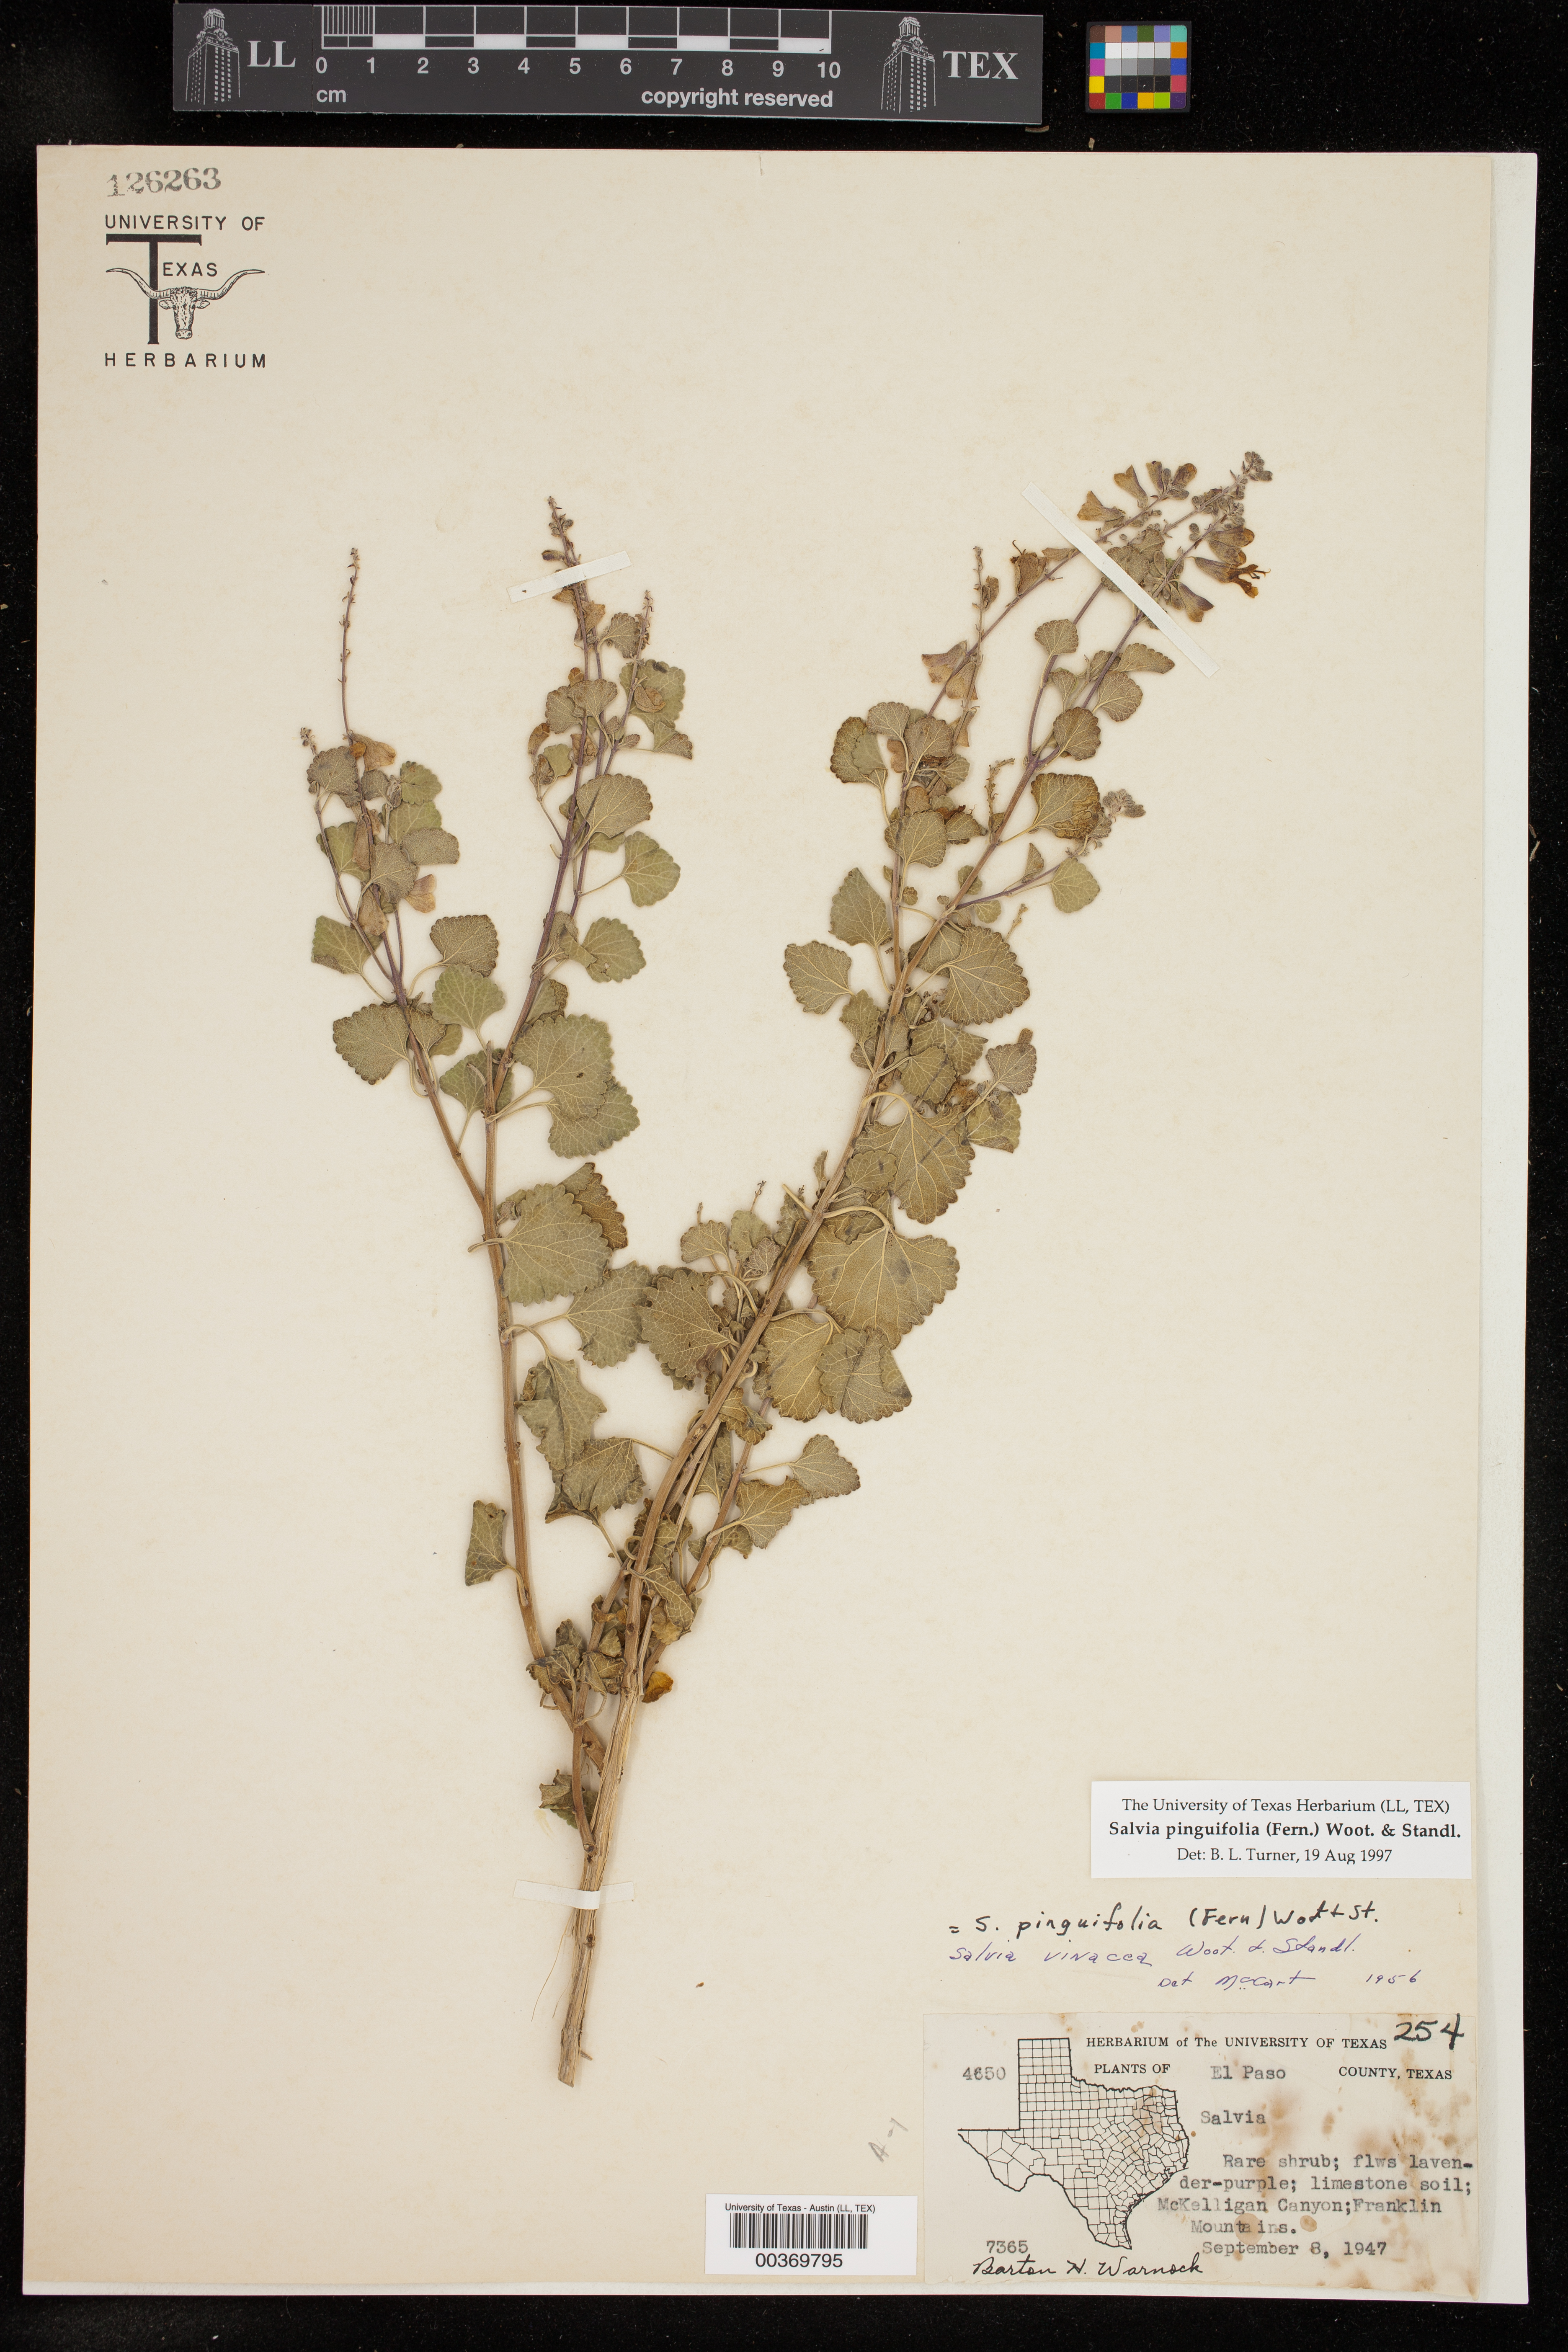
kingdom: Plantae
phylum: Tracheophyta
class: Magnoliopsida
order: Lamiales
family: Lamiaceae
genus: Salvia
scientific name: Salvia pinguifolia
